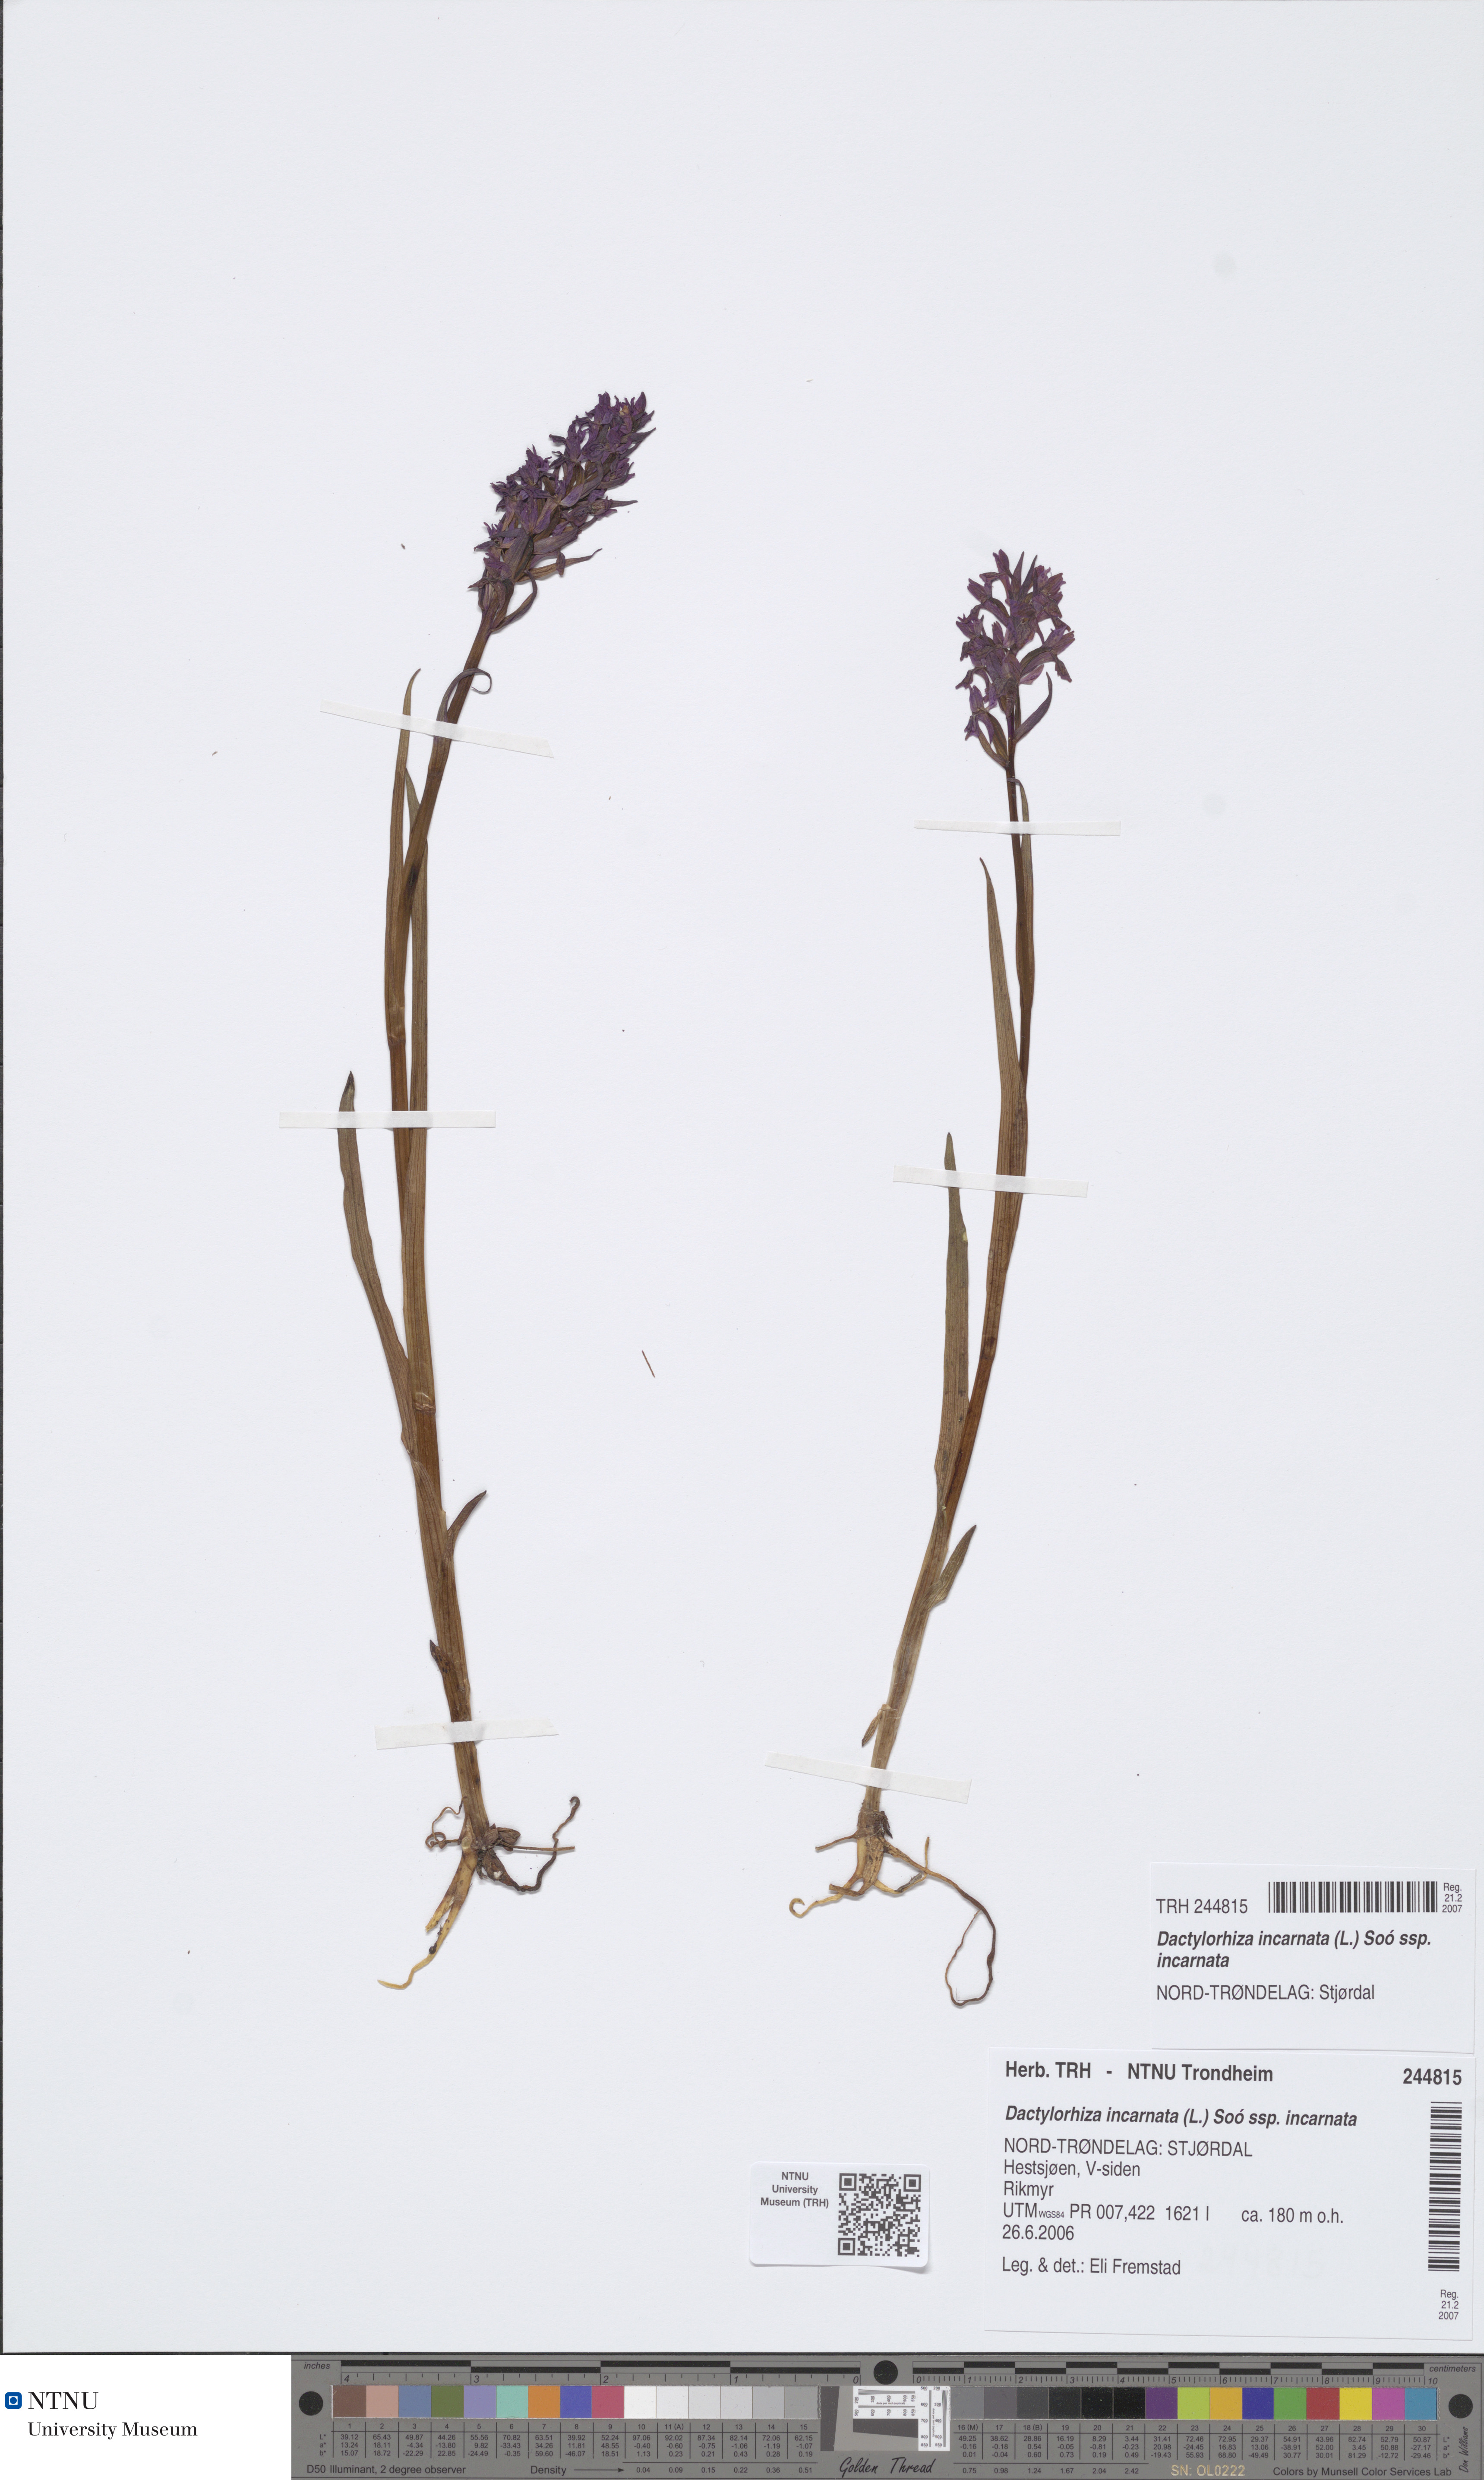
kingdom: Plantae
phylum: Tracheophyta
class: Liliopsida
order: Asparagales
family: Orchidaceae
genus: Dactylorhiza
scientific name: Dactylorhiza incarnata
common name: Early marsh-orchid
